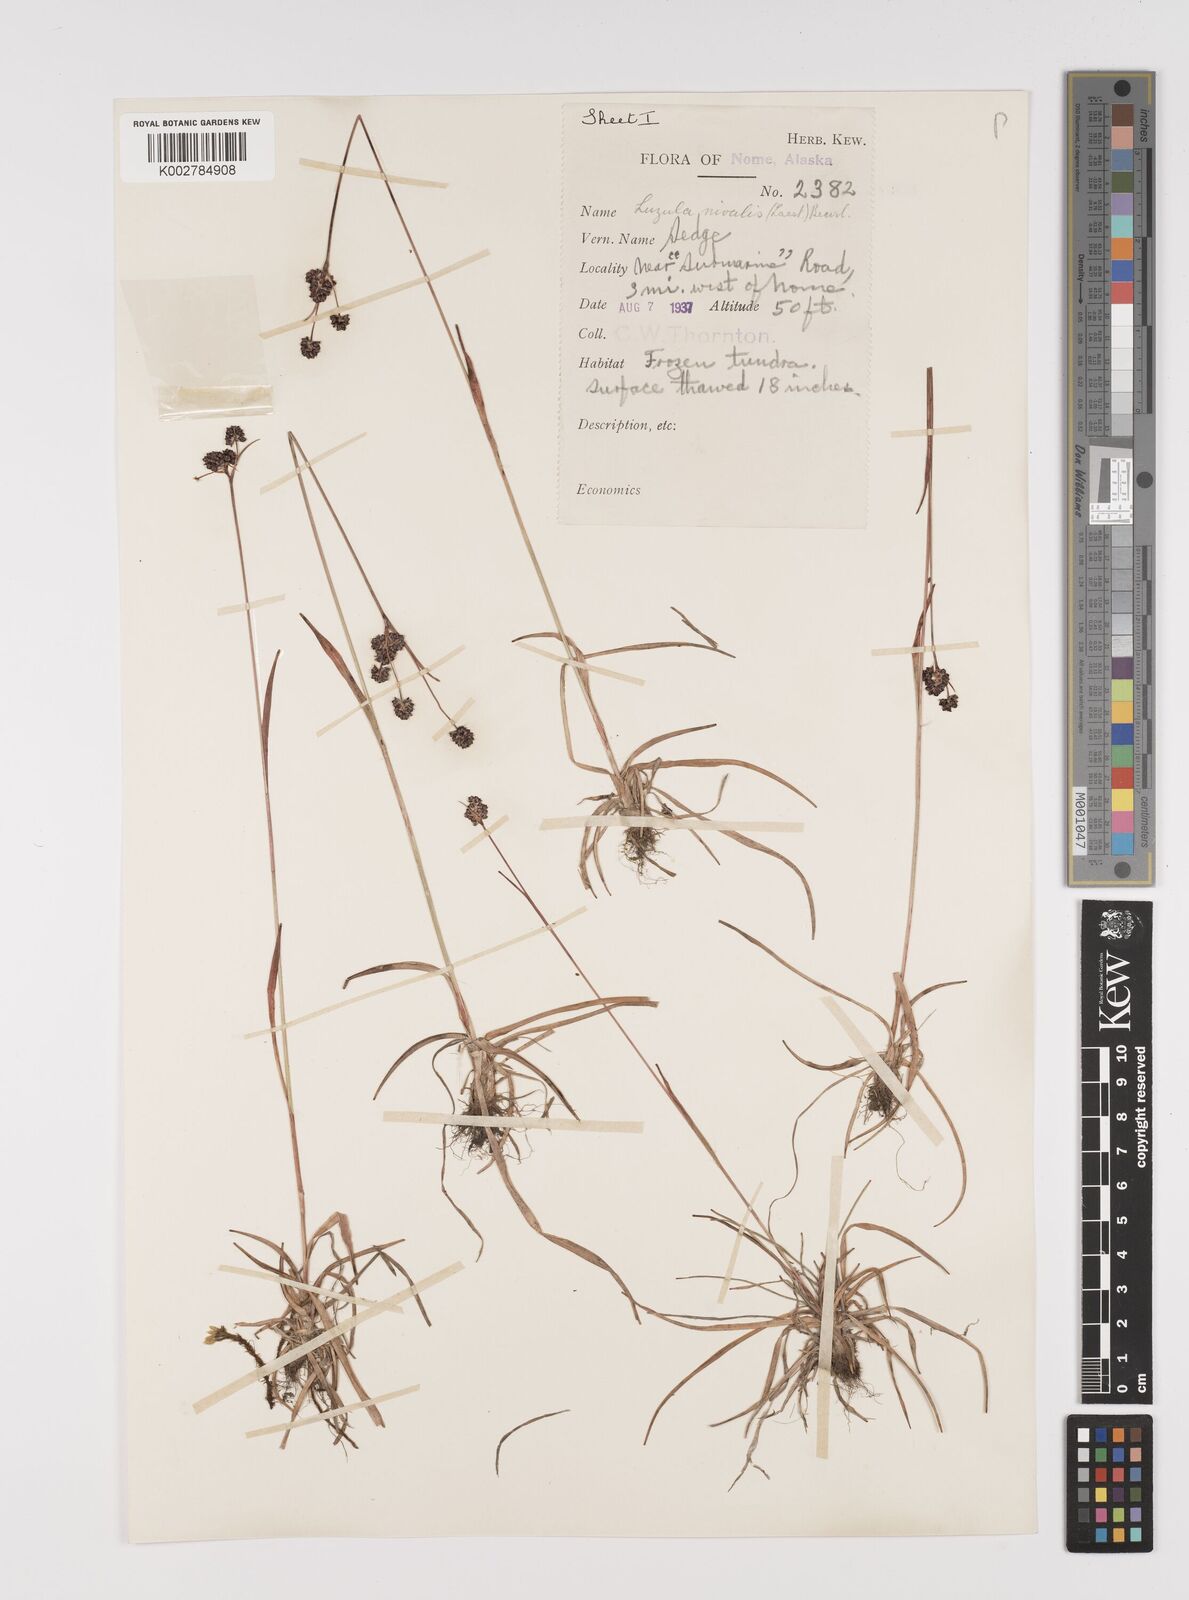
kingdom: Plantae
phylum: Tracheophyta
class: Liliopsida
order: Poales
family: Juncaceae
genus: Luzula
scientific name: Luzula nivalis
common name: Arctic woodrush
